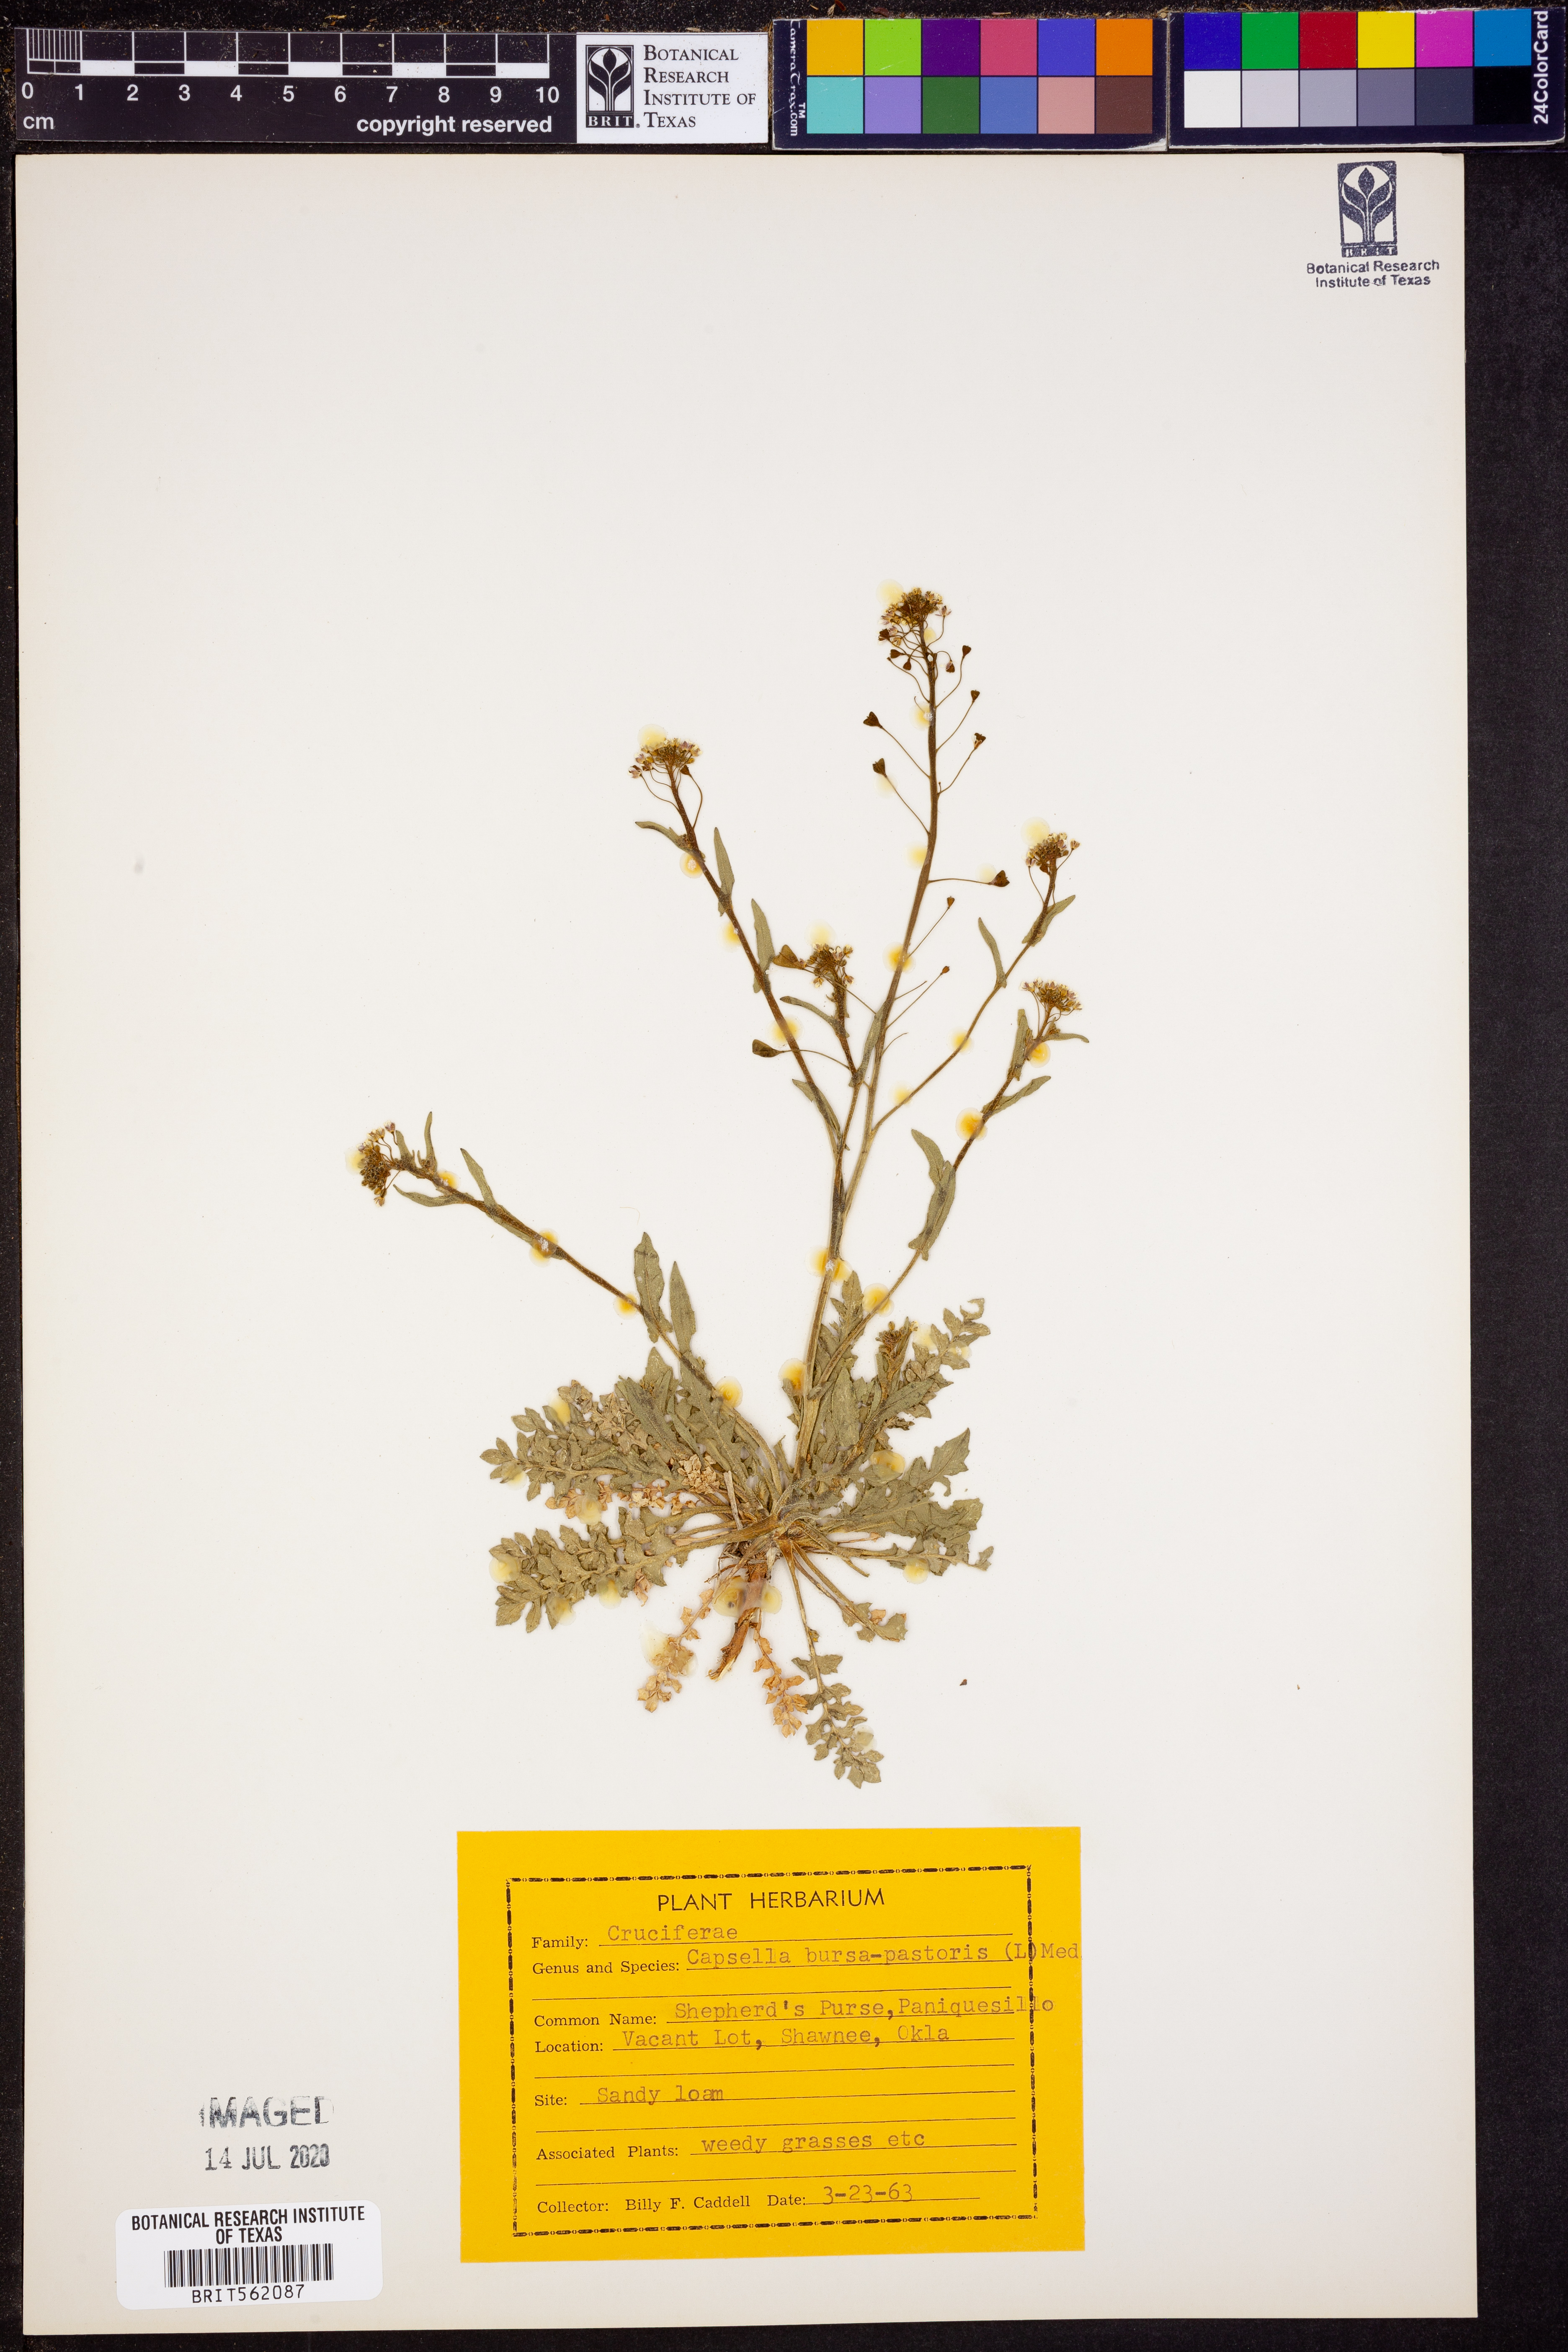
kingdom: Plantae
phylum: Tracheophyta
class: Magnoliopsida
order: Brassicales
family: Brassicaceae
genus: Capsella
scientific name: Capsella bursa-pastoris
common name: Shepherd's purse
